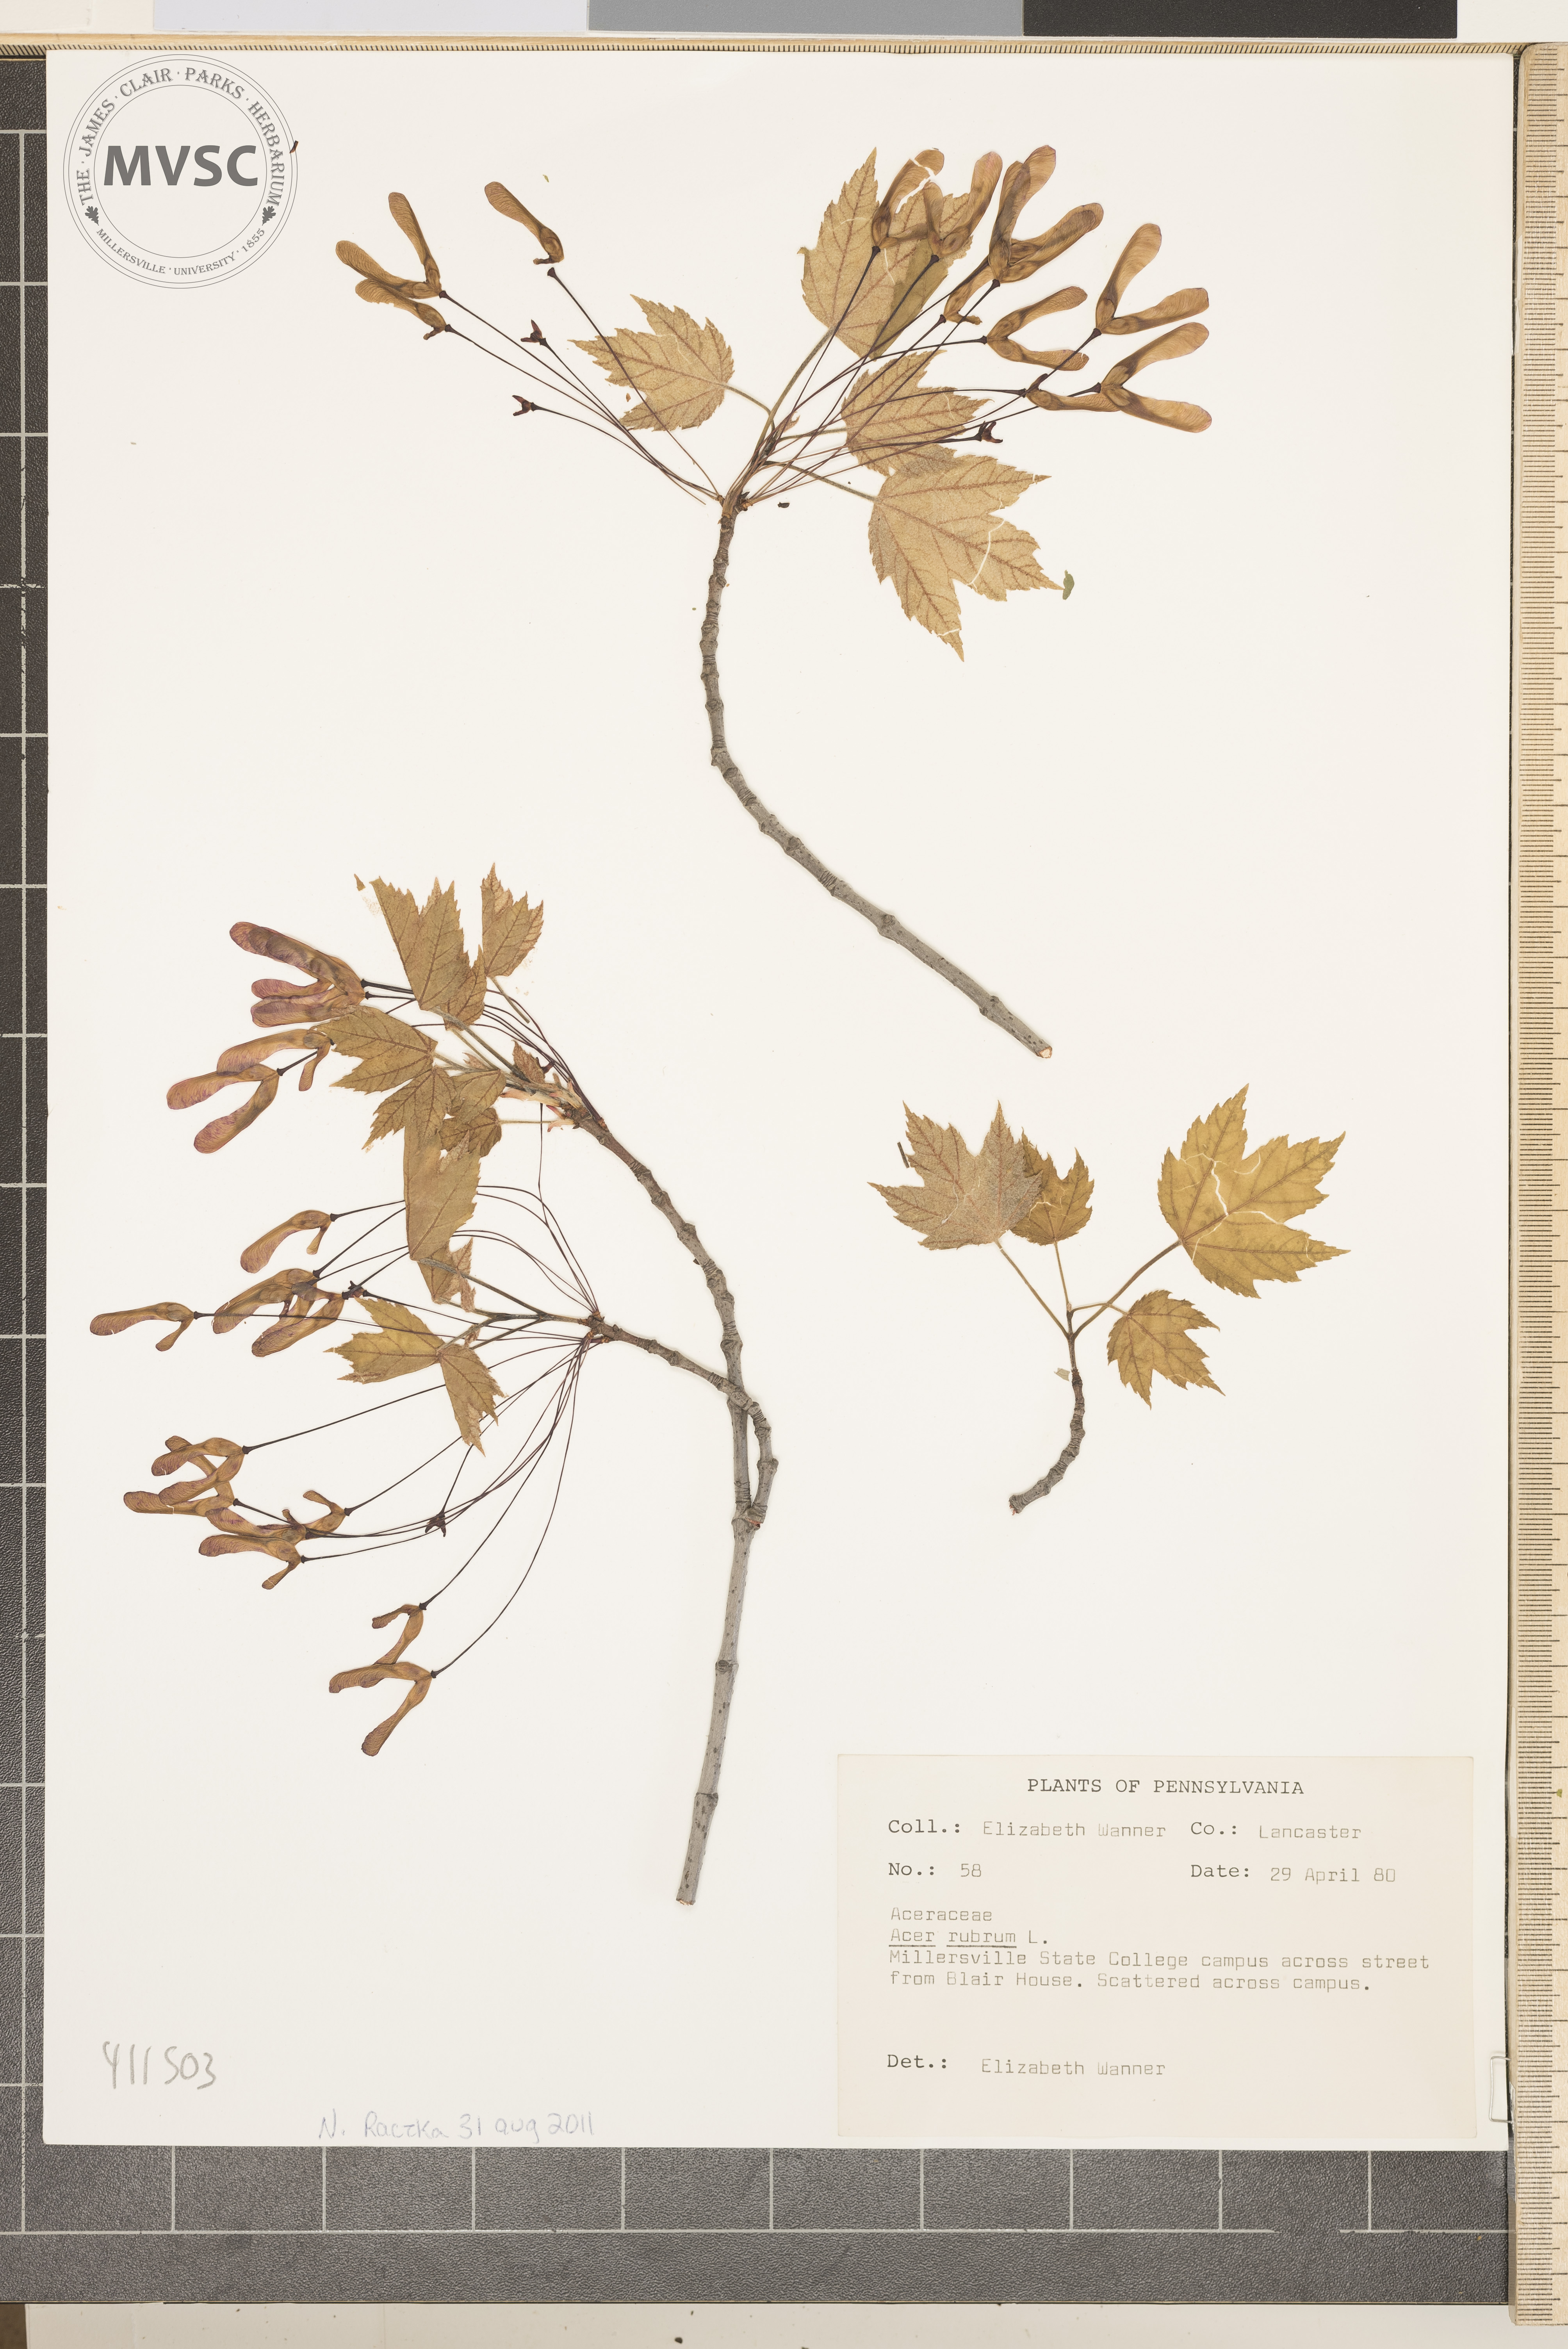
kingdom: Plantae
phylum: Tracheophyta
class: Magnoliopsida
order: Sapindales
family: Sapindaceae
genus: Acer
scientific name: Acer rubrum
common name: Red maple
